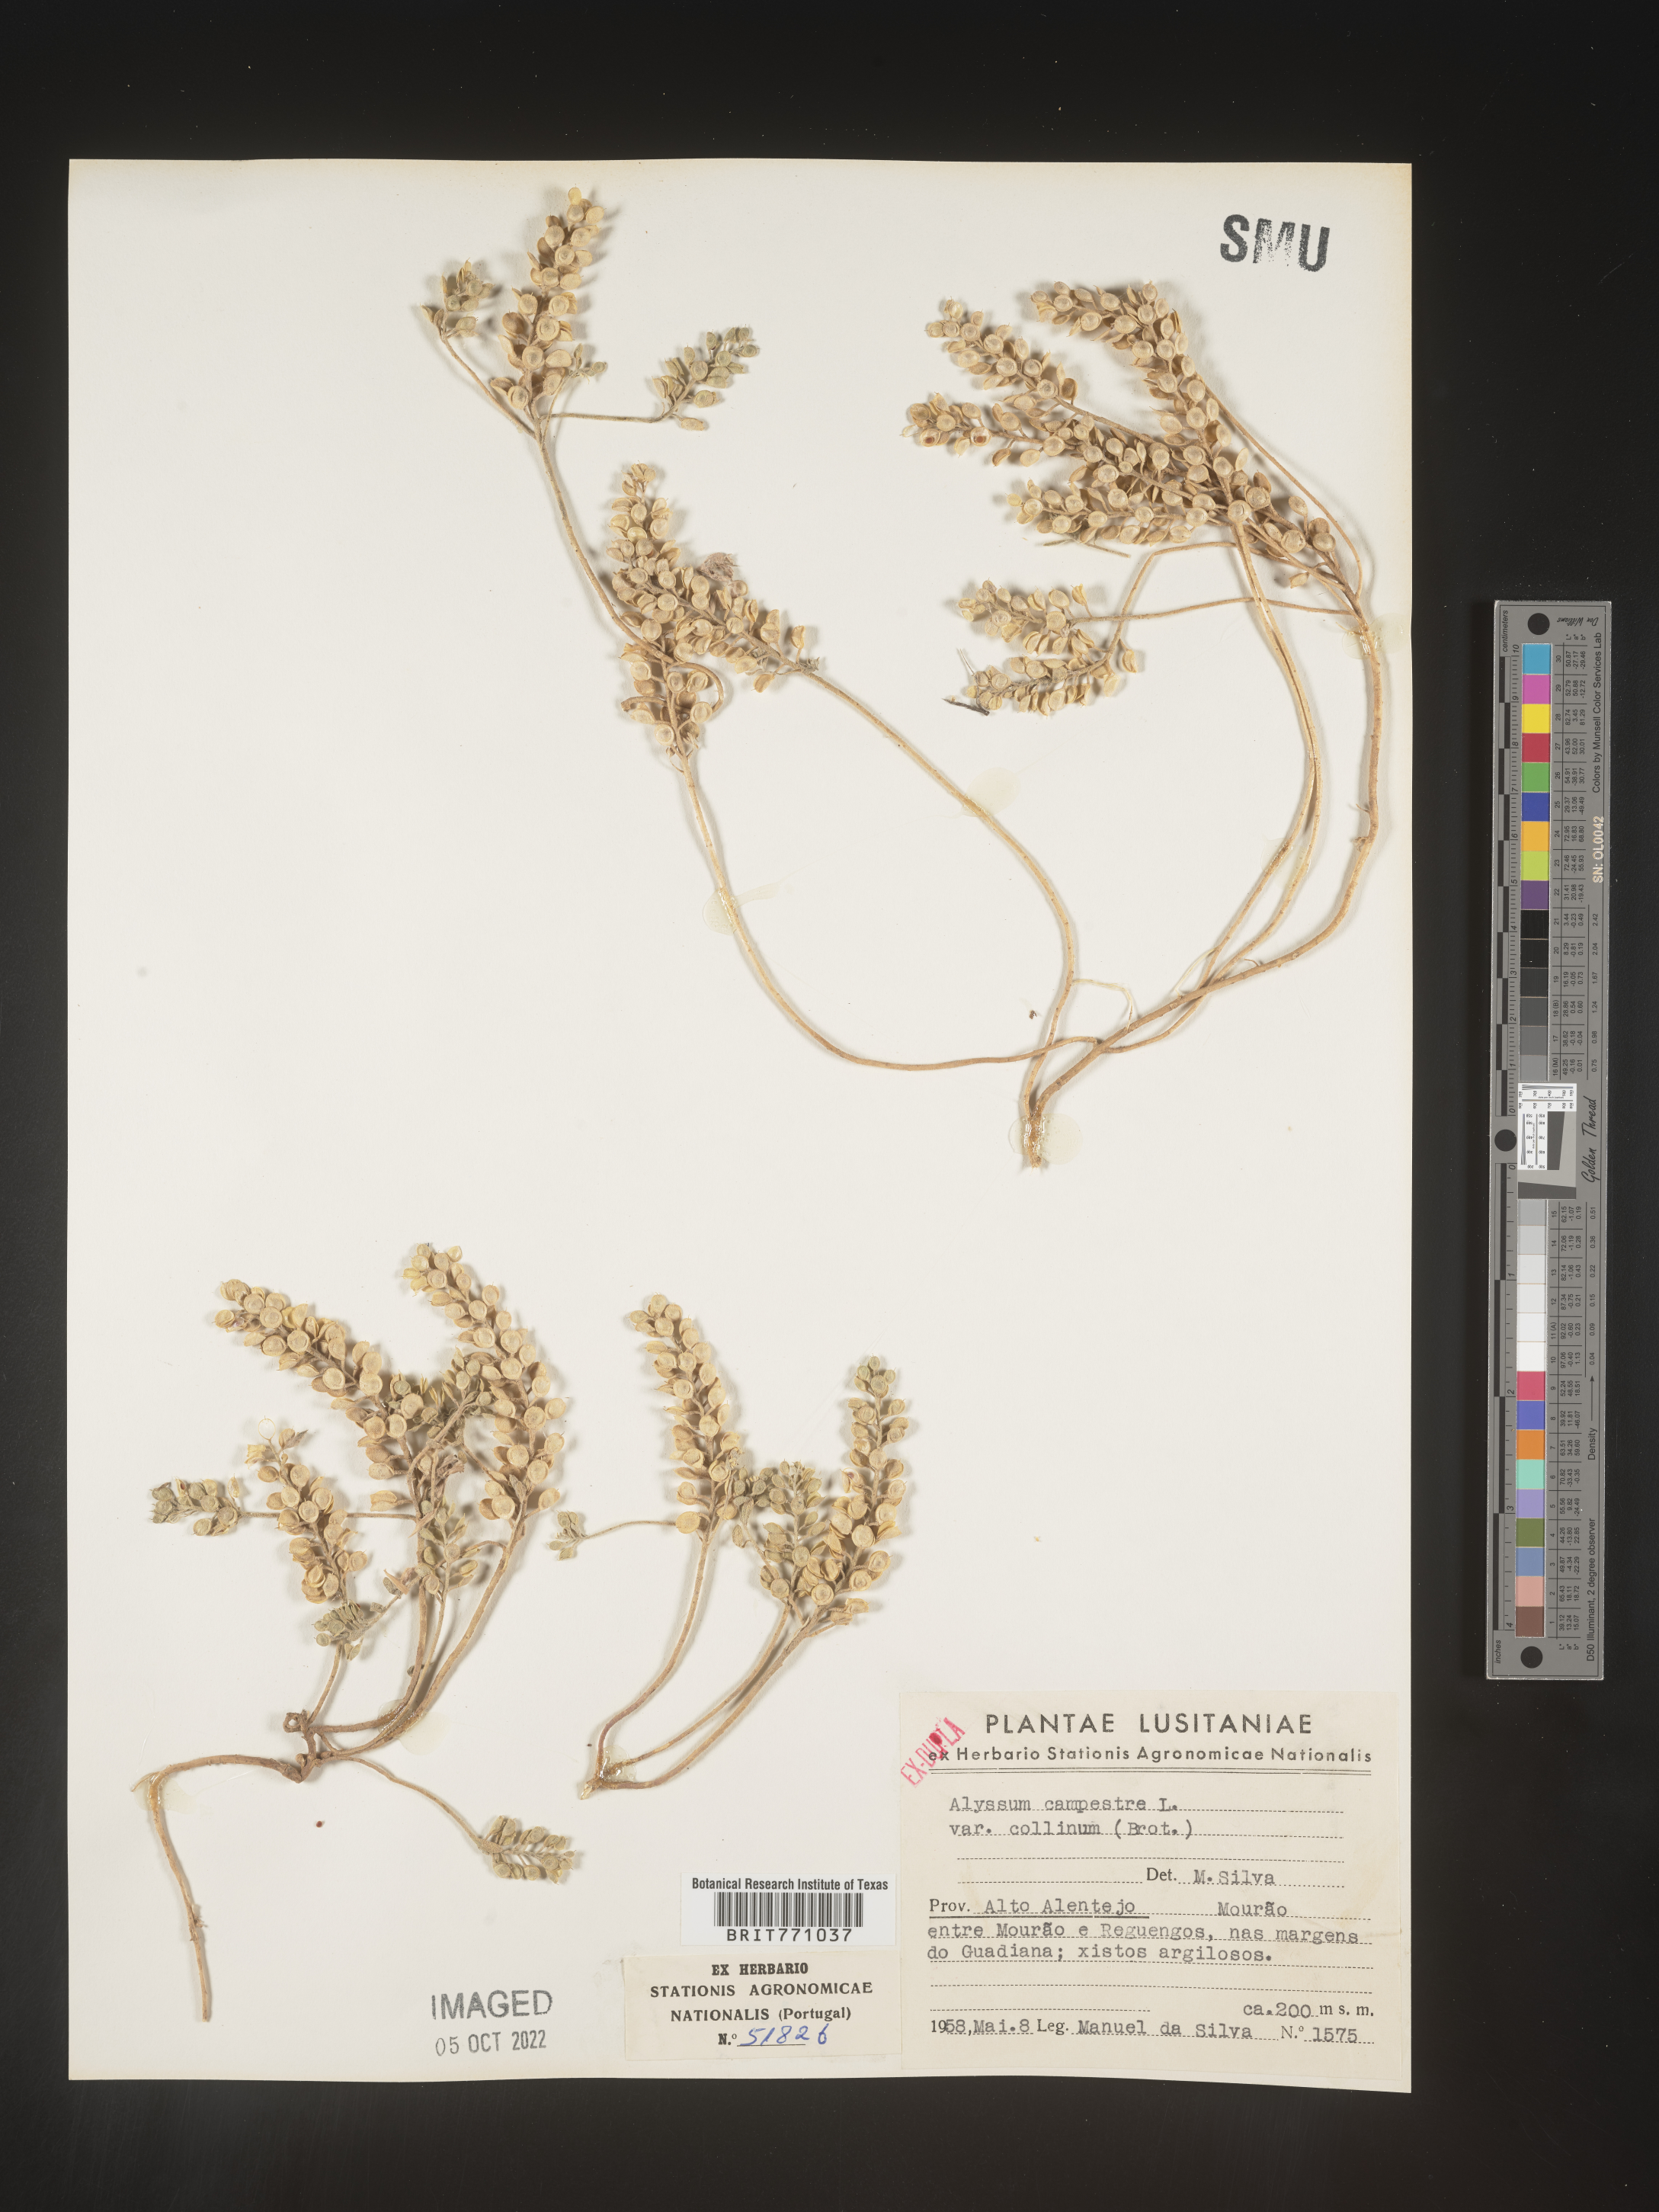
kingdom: Plantae
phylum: Tracheophyta
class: Magnoliopsida
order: Brassicales
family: Brassicaceae
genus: Alyssum
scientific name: Alyssum
